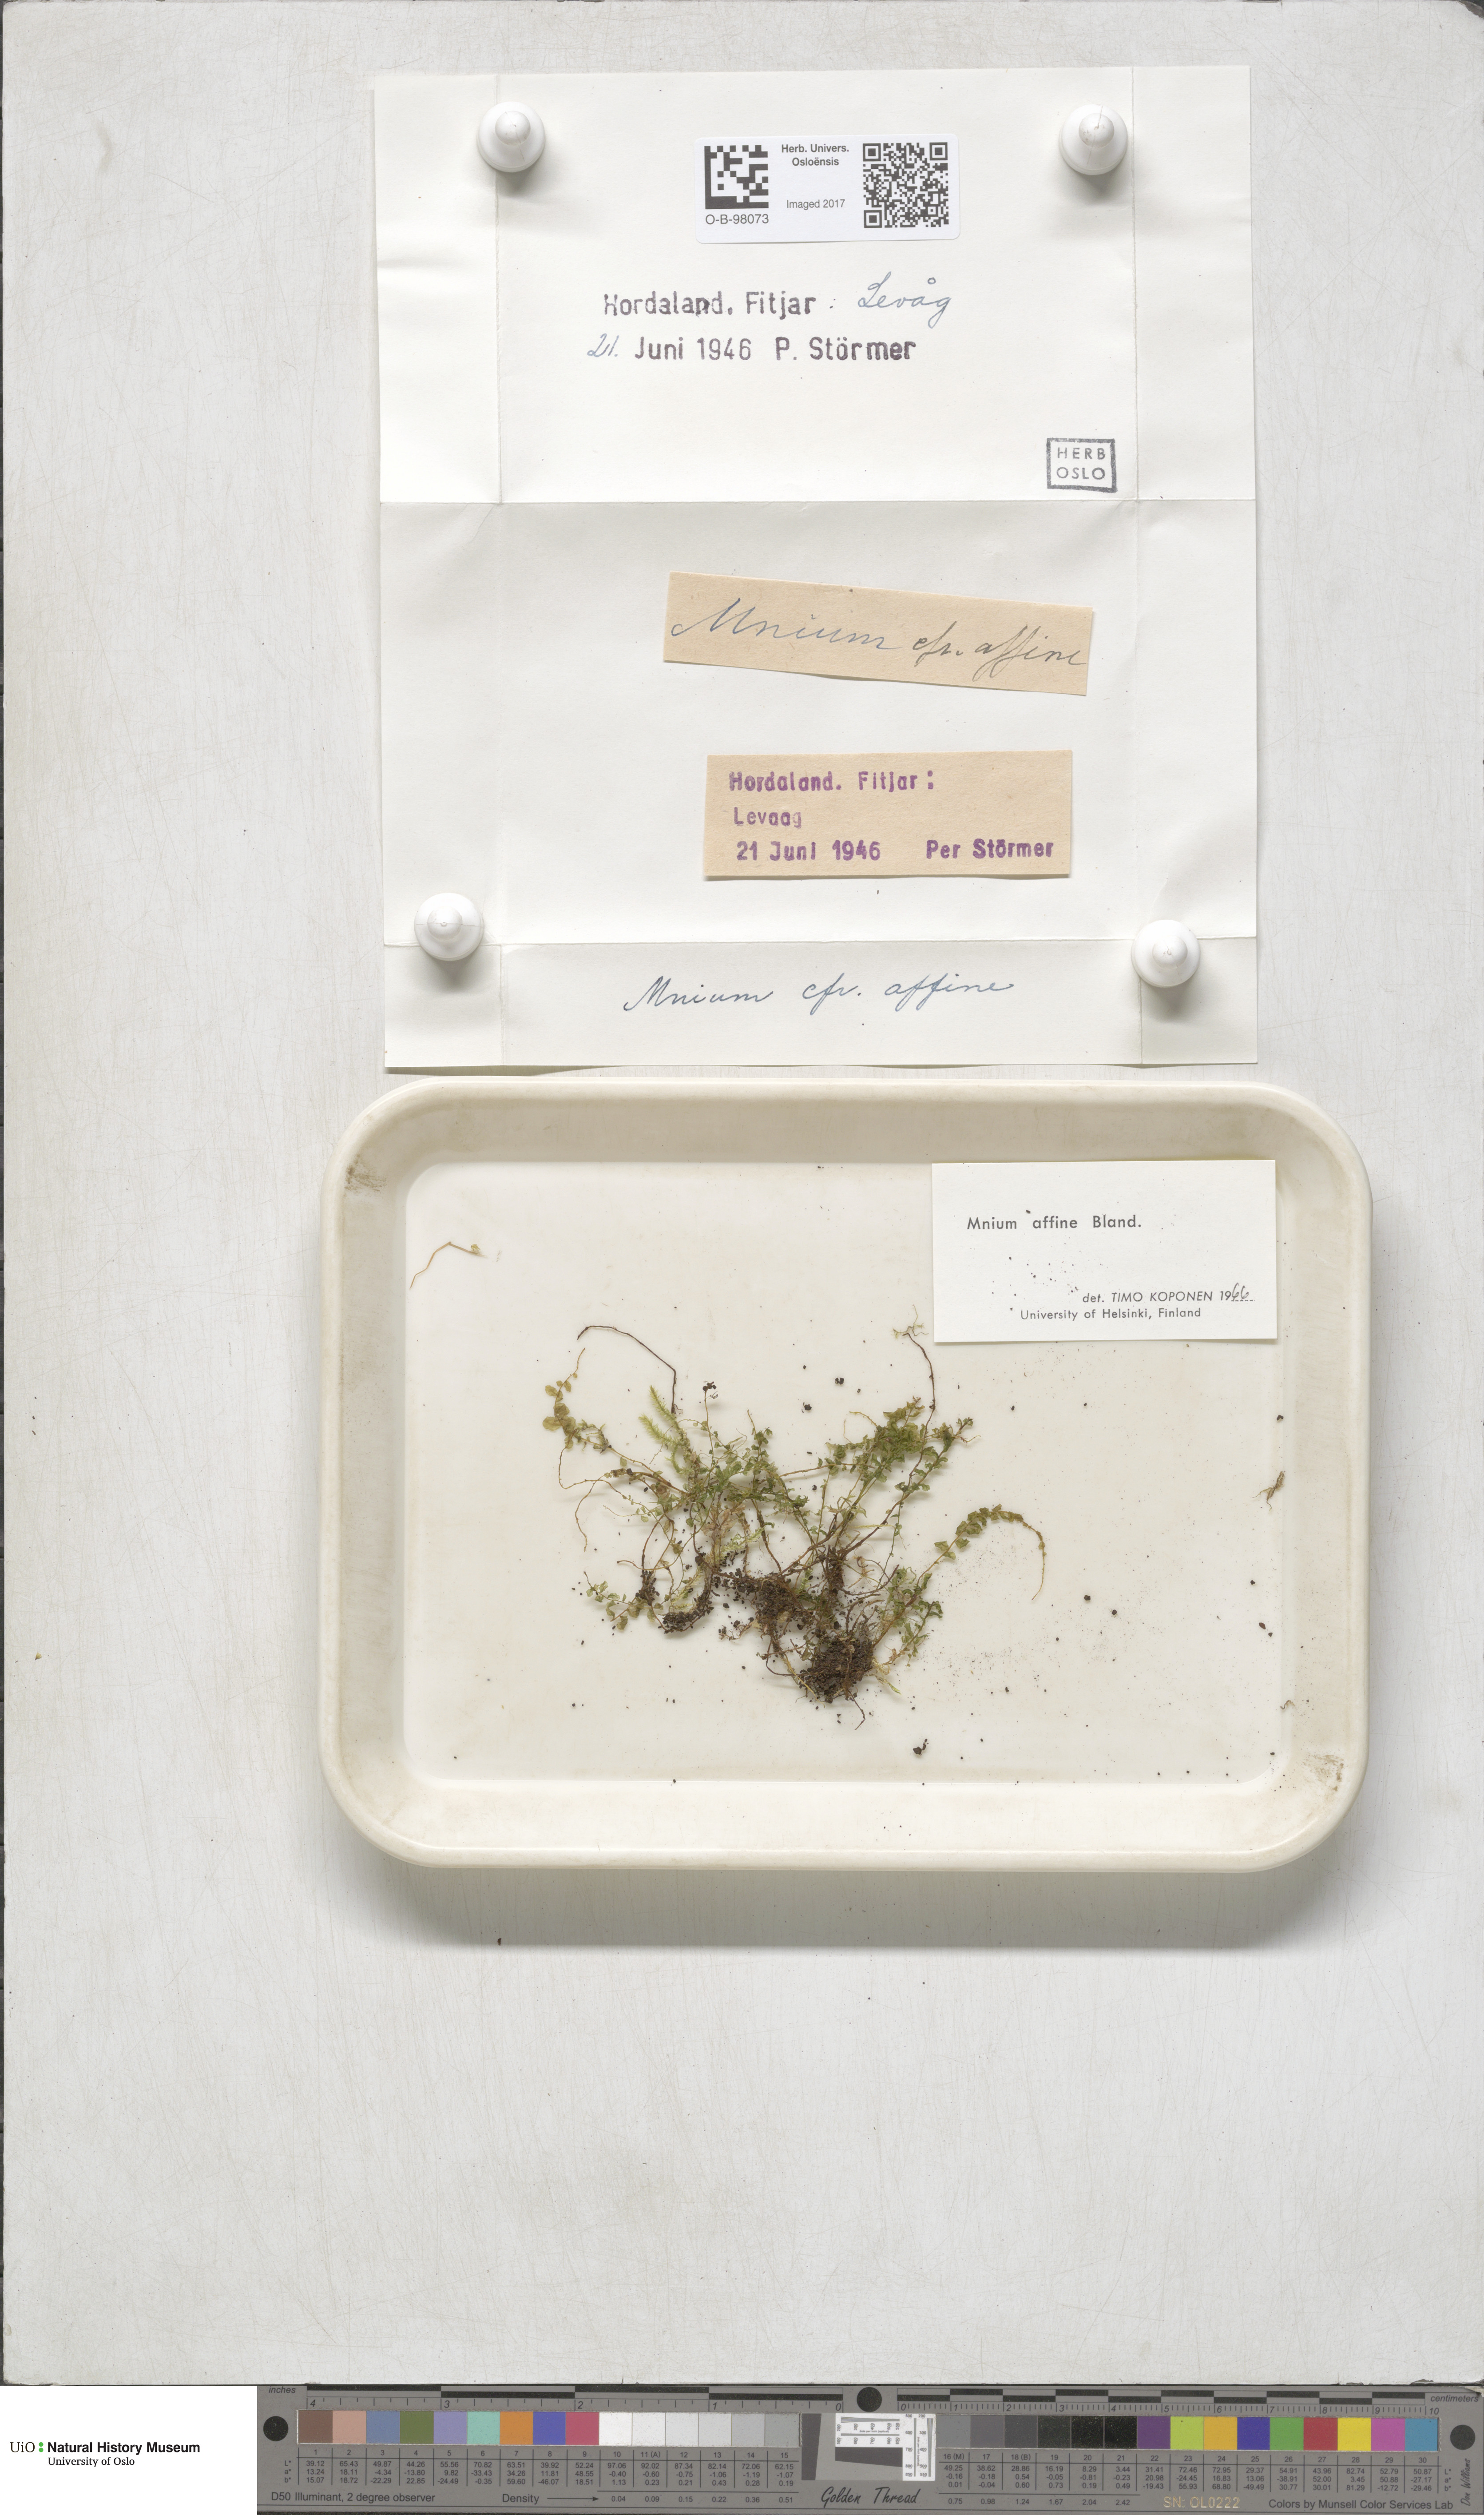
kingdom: Plantae
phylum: Bryophyta
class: Bryopsida
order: Bryales
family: Mniaceae
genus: Plagiomnium
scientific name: Plagiomnium affine
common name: Many-fruited thyme-moss
